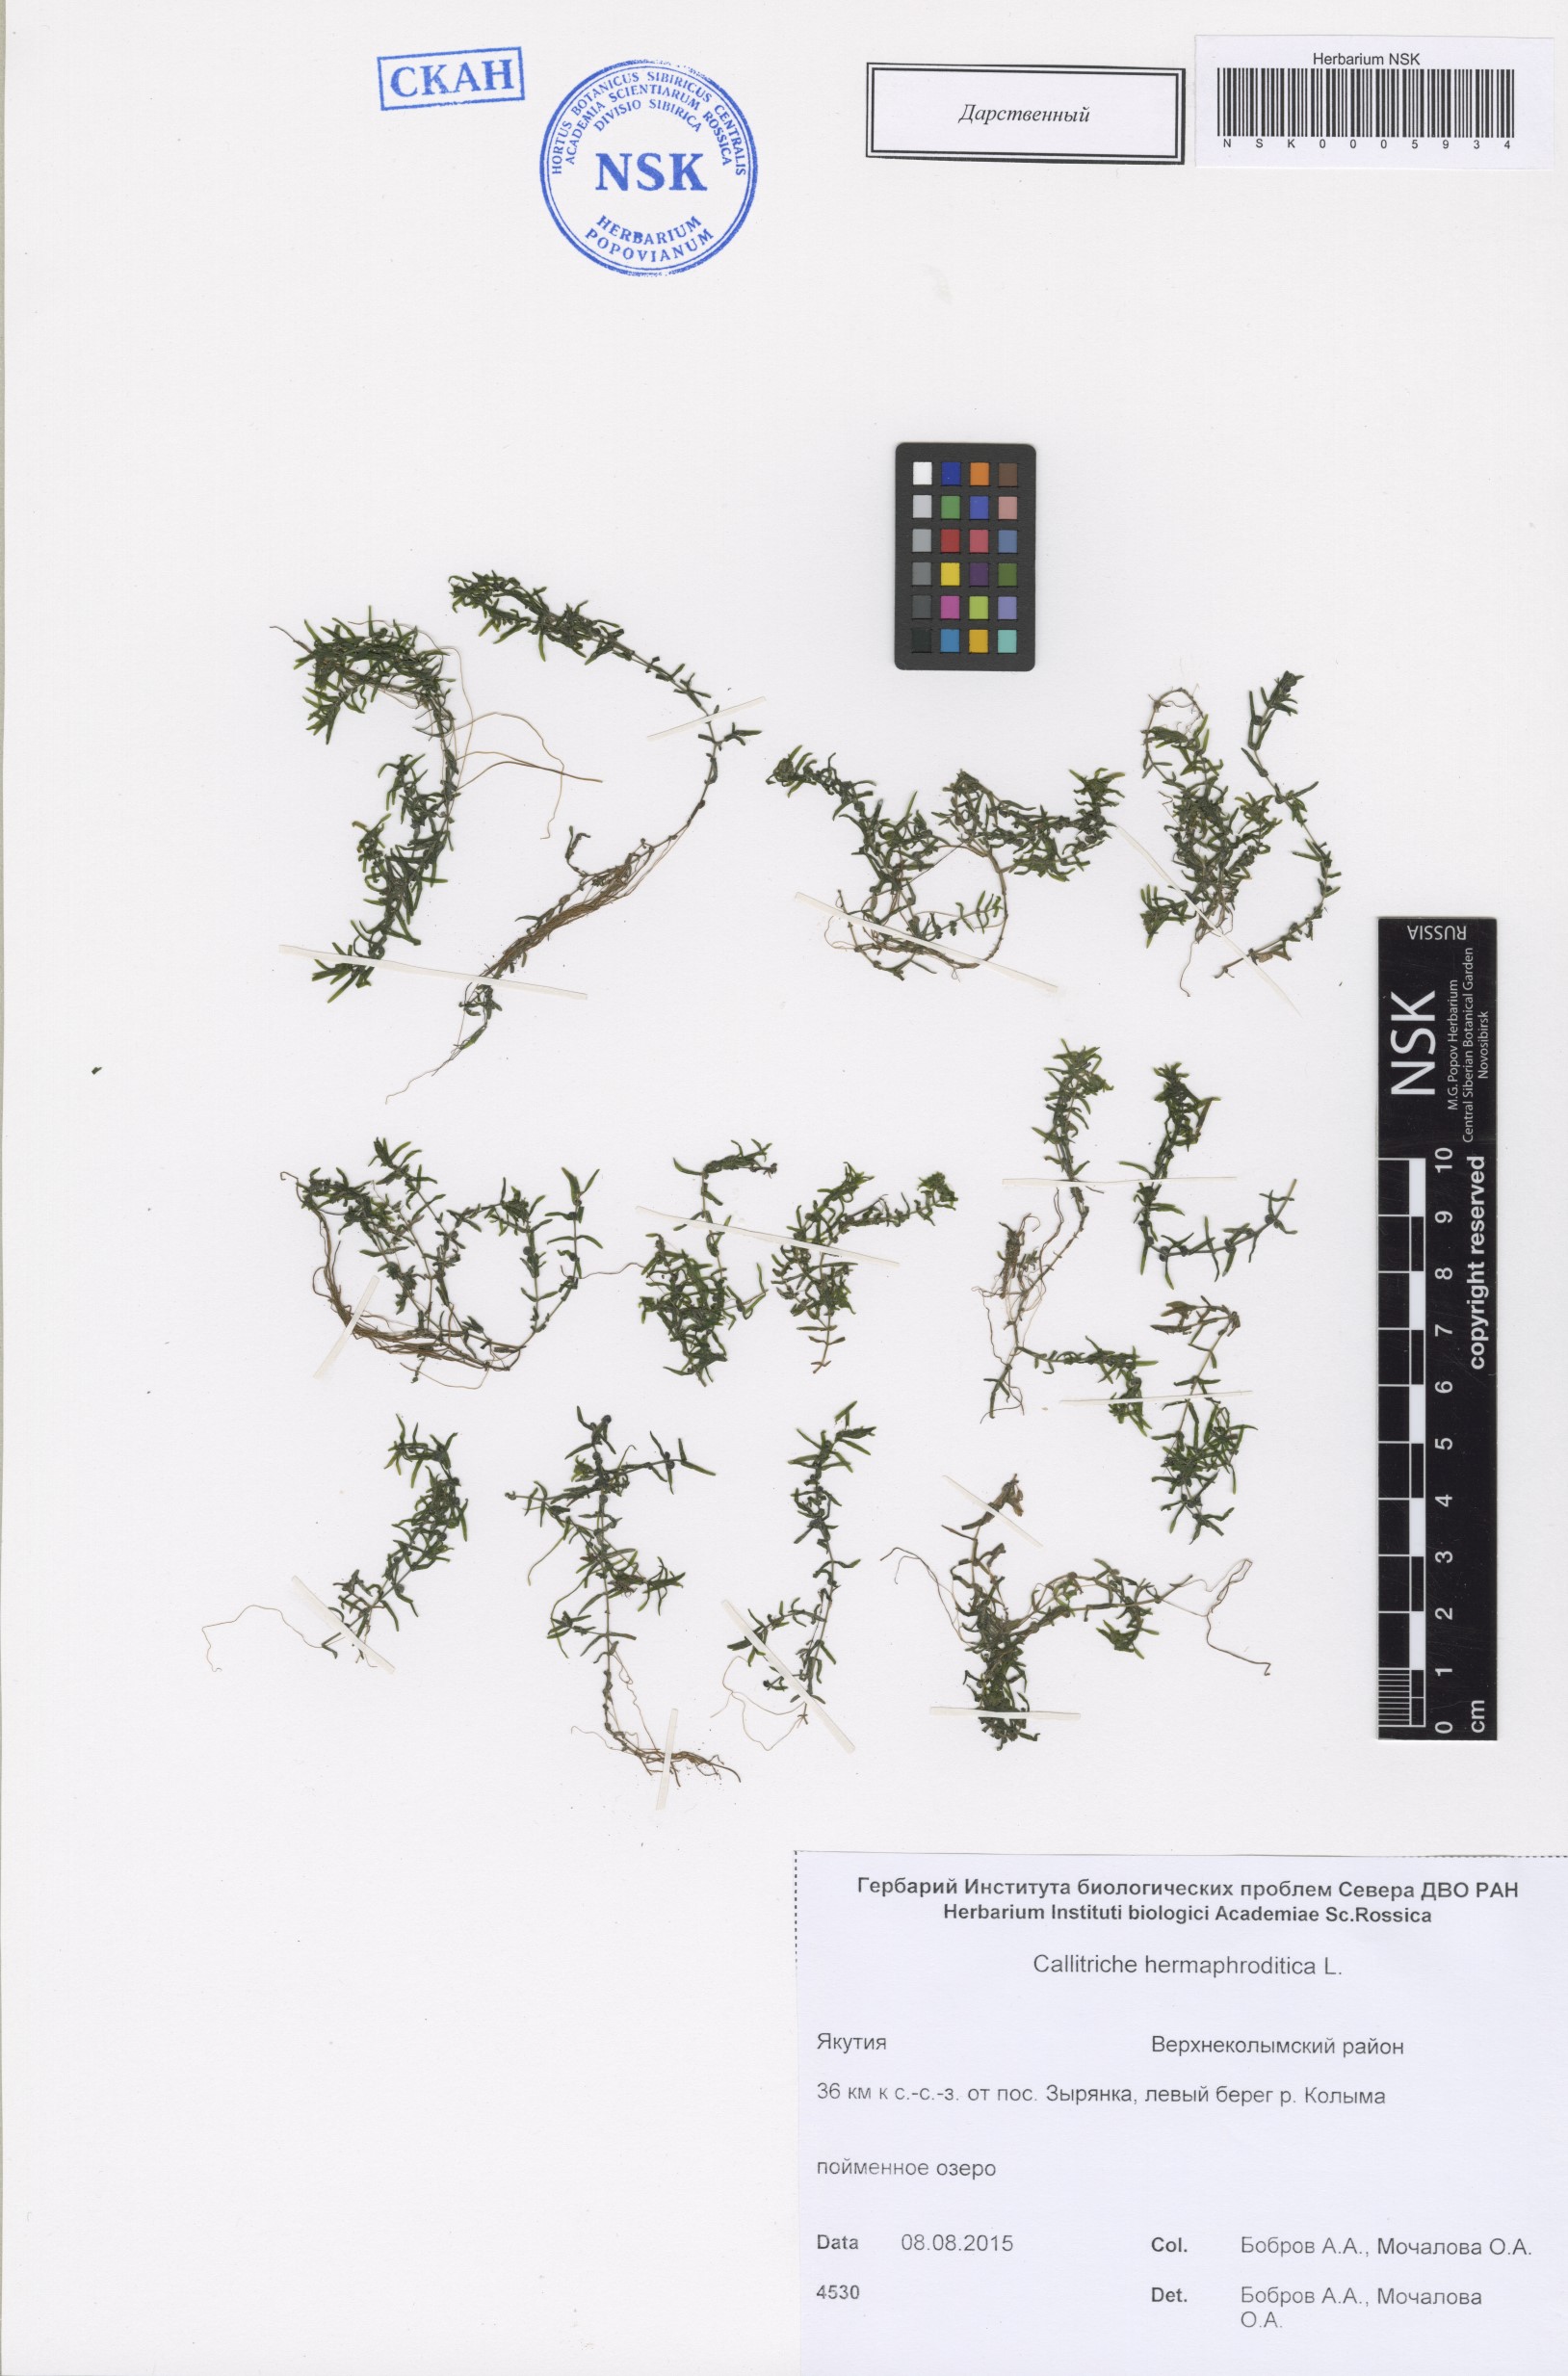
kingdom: Plantae
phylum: Tracheophyta
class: Magnoliopsida
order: Lamiales
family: Plantaginaceae
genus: Callitriche
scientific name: Callitriche hermaphroditica
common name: Autumnal water-starwort
